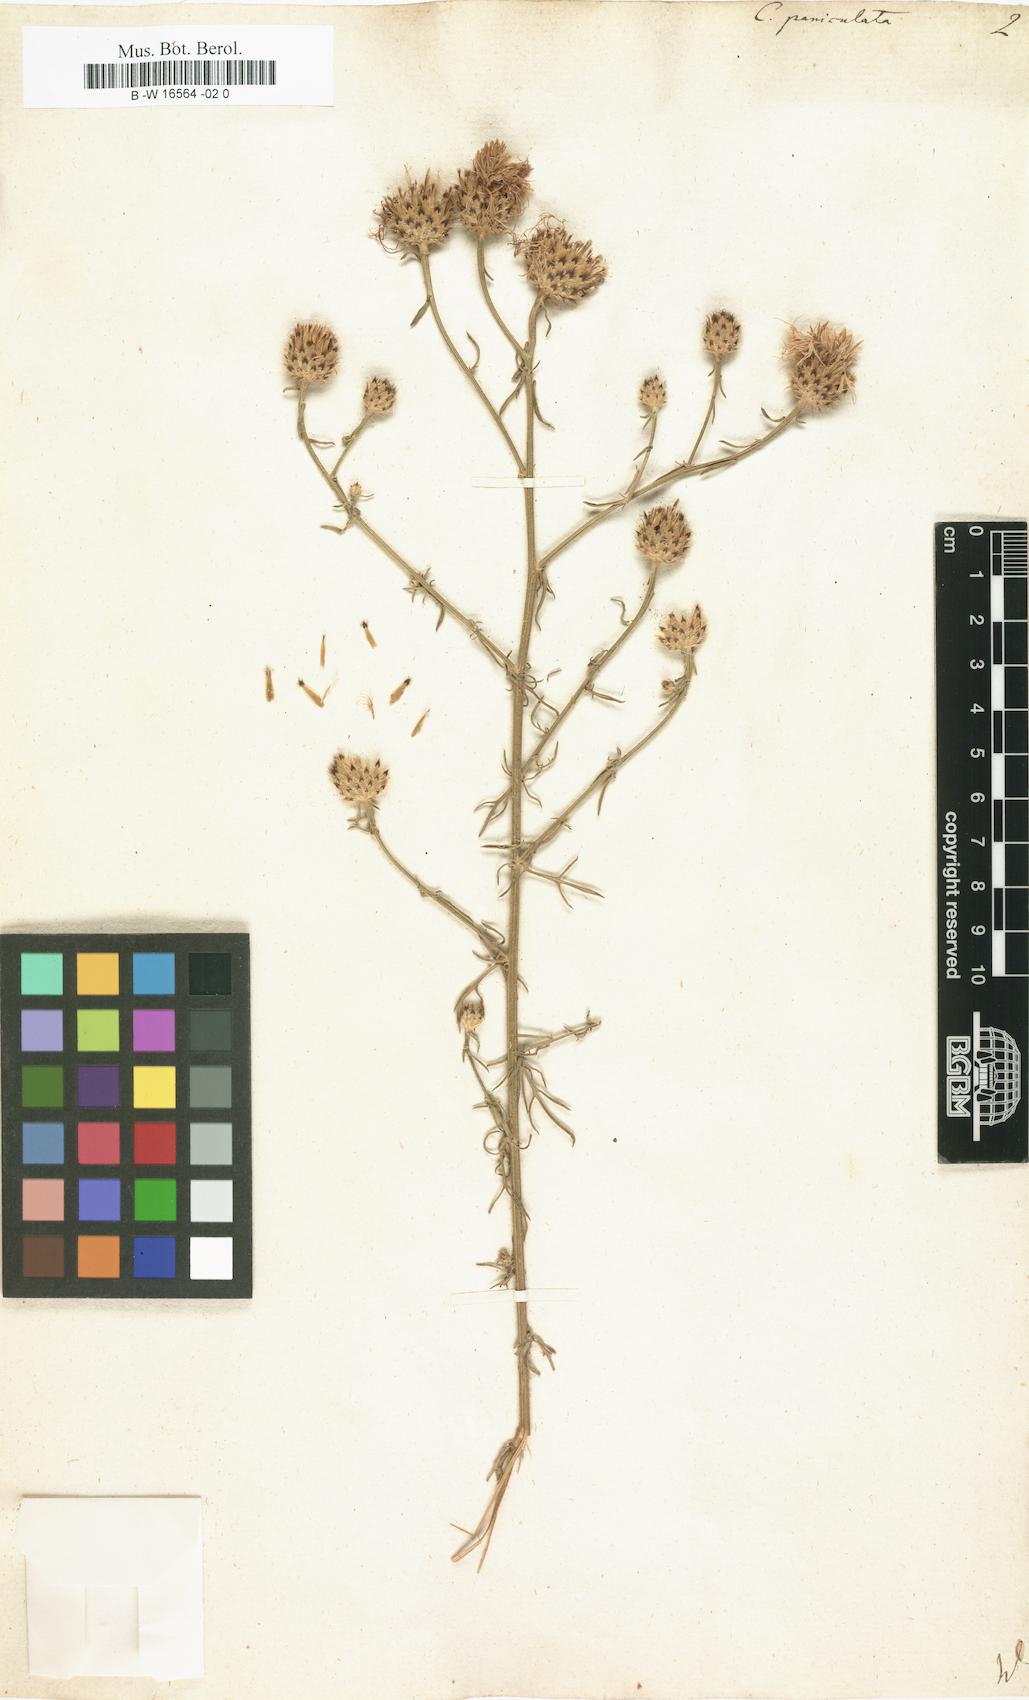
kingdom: Plantae
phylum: Tracheophyta
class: Magnoliopsida
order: Asterales
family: Asteraceae
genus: Centaurea
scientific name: Centaurea paniculata
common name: Jersey knapweed
